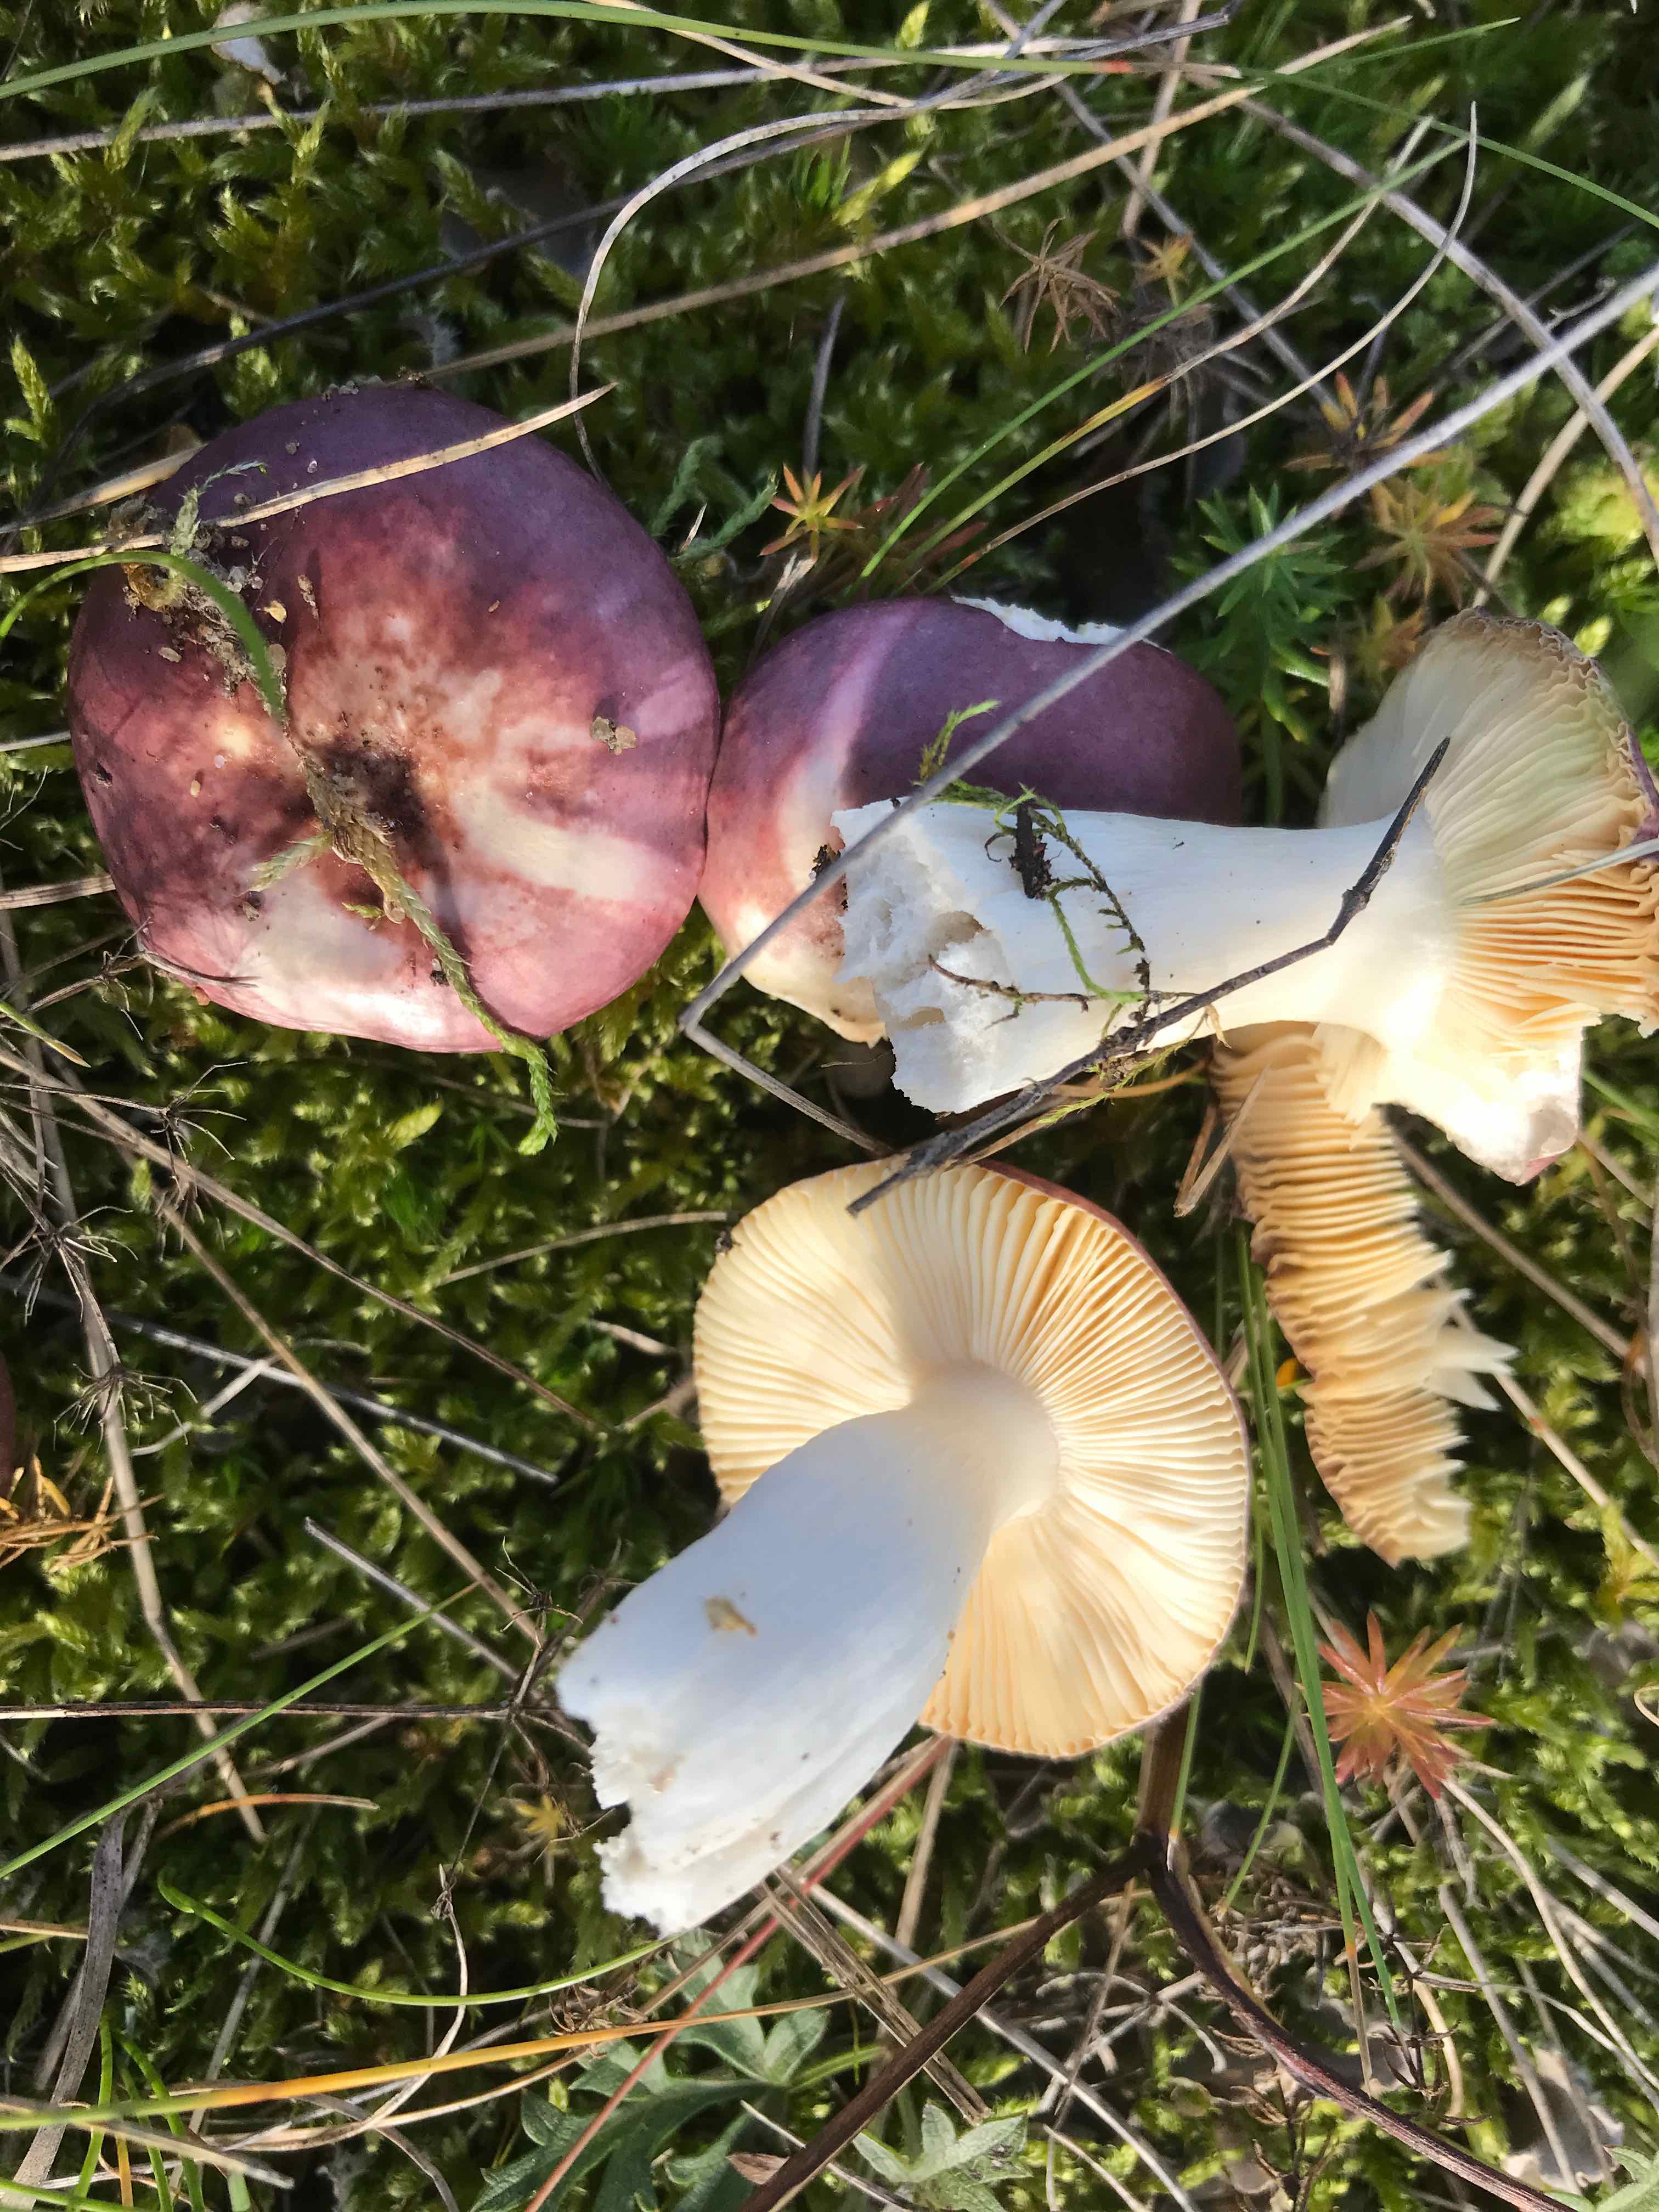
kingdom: Fungi
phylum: Basidiomycota
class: Agaricomycetes
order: Russulales
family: Russulaceae
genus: Russula
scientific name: Russula cessans
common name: fyrre-skørhat
